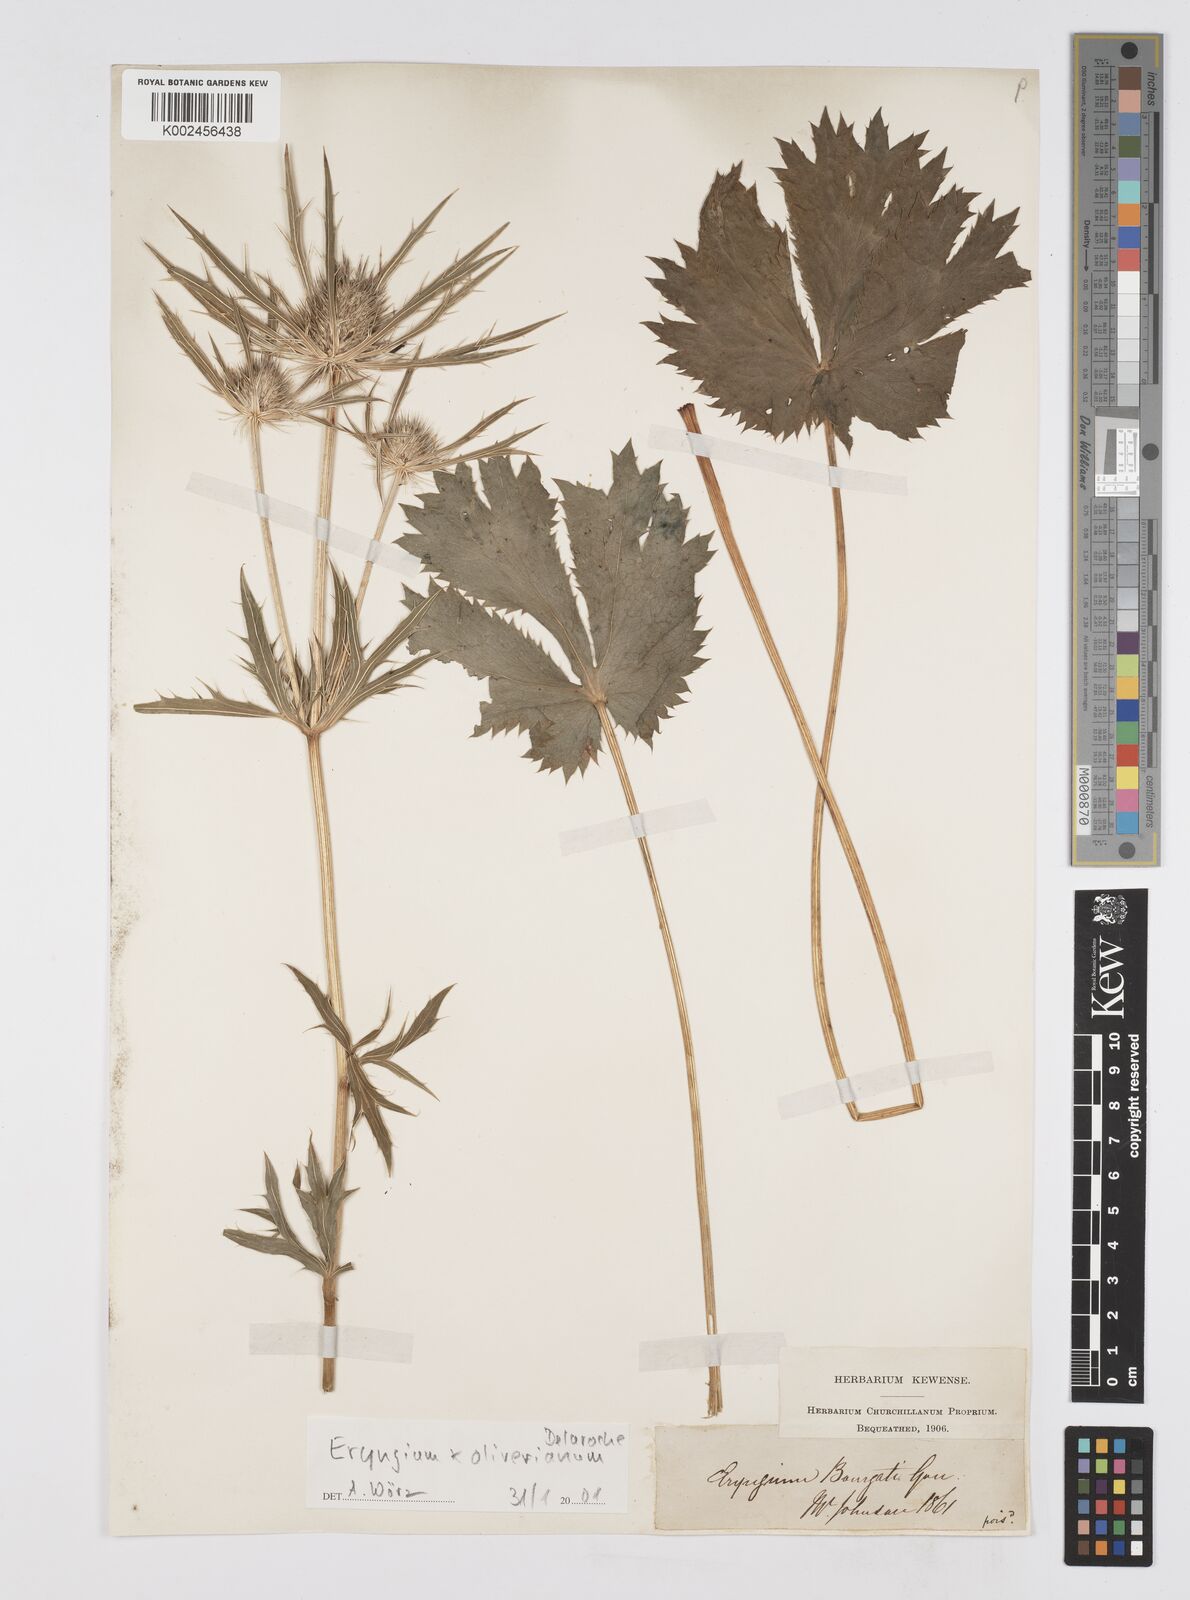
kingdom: Plantae
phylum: Tracheophyta
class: Magnoliopsida
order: Apiales
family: Apiaceae
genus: Eryngium
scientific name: Eryngium oliverianum
